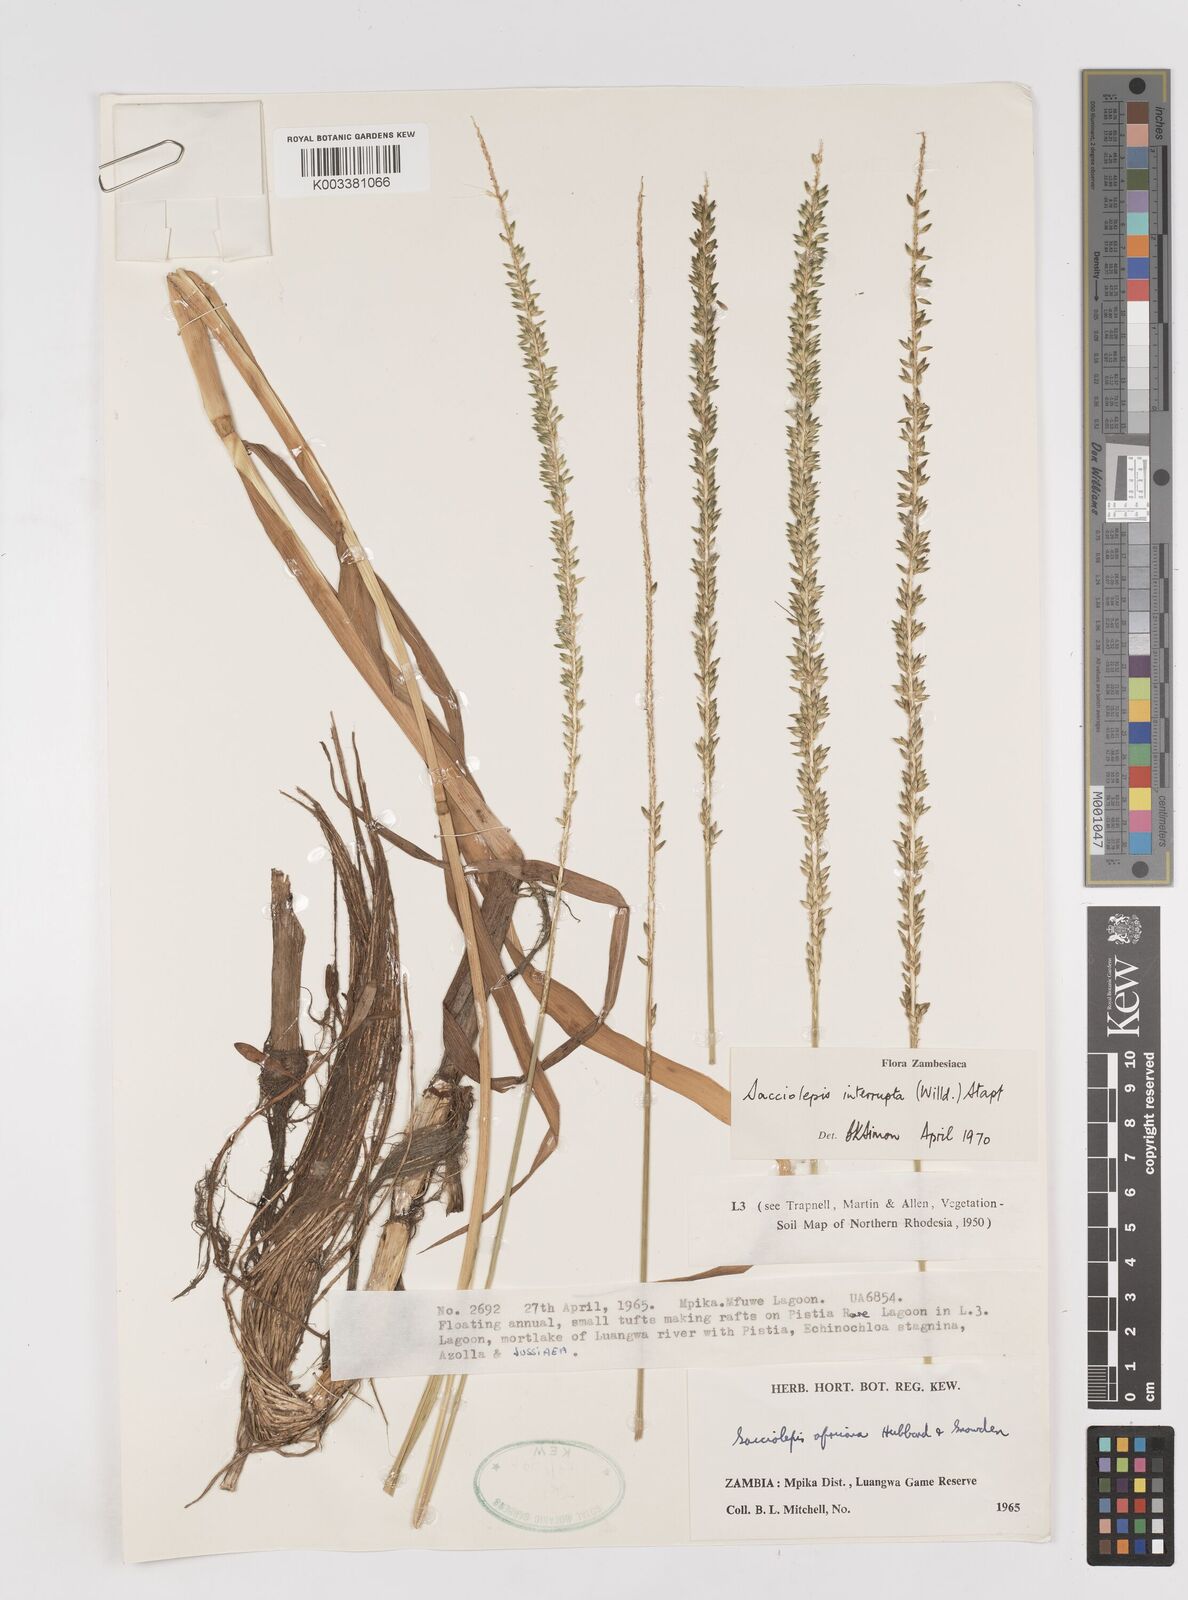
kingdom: Plantae
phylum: Tracheophyta
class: Liliopsida
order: Poales
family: Poaceae
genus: Sacciolepis
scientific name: Sacciolepis interrupta
